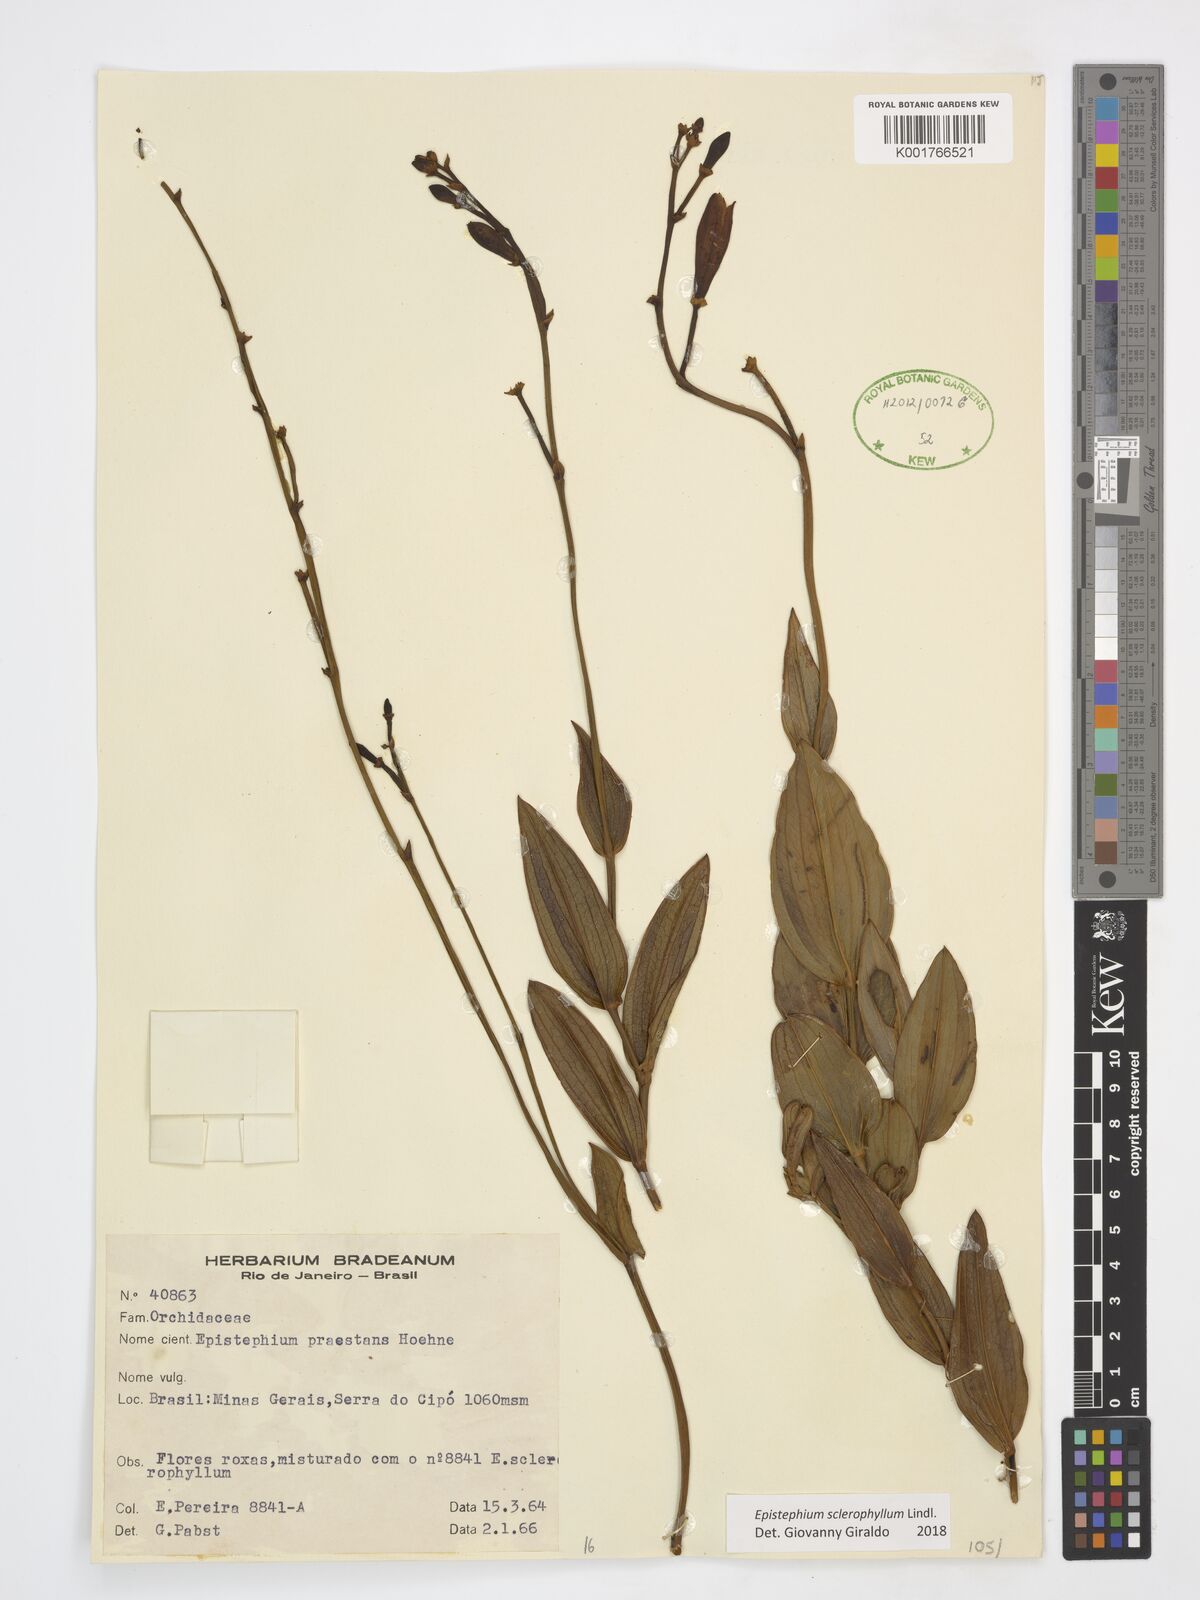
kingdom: Plantae
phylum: Tracheophyta
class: Liliopsida
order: Asparagales
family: Orchidaceae
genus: Epistephium
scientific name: Epistephium sclerophyllum
